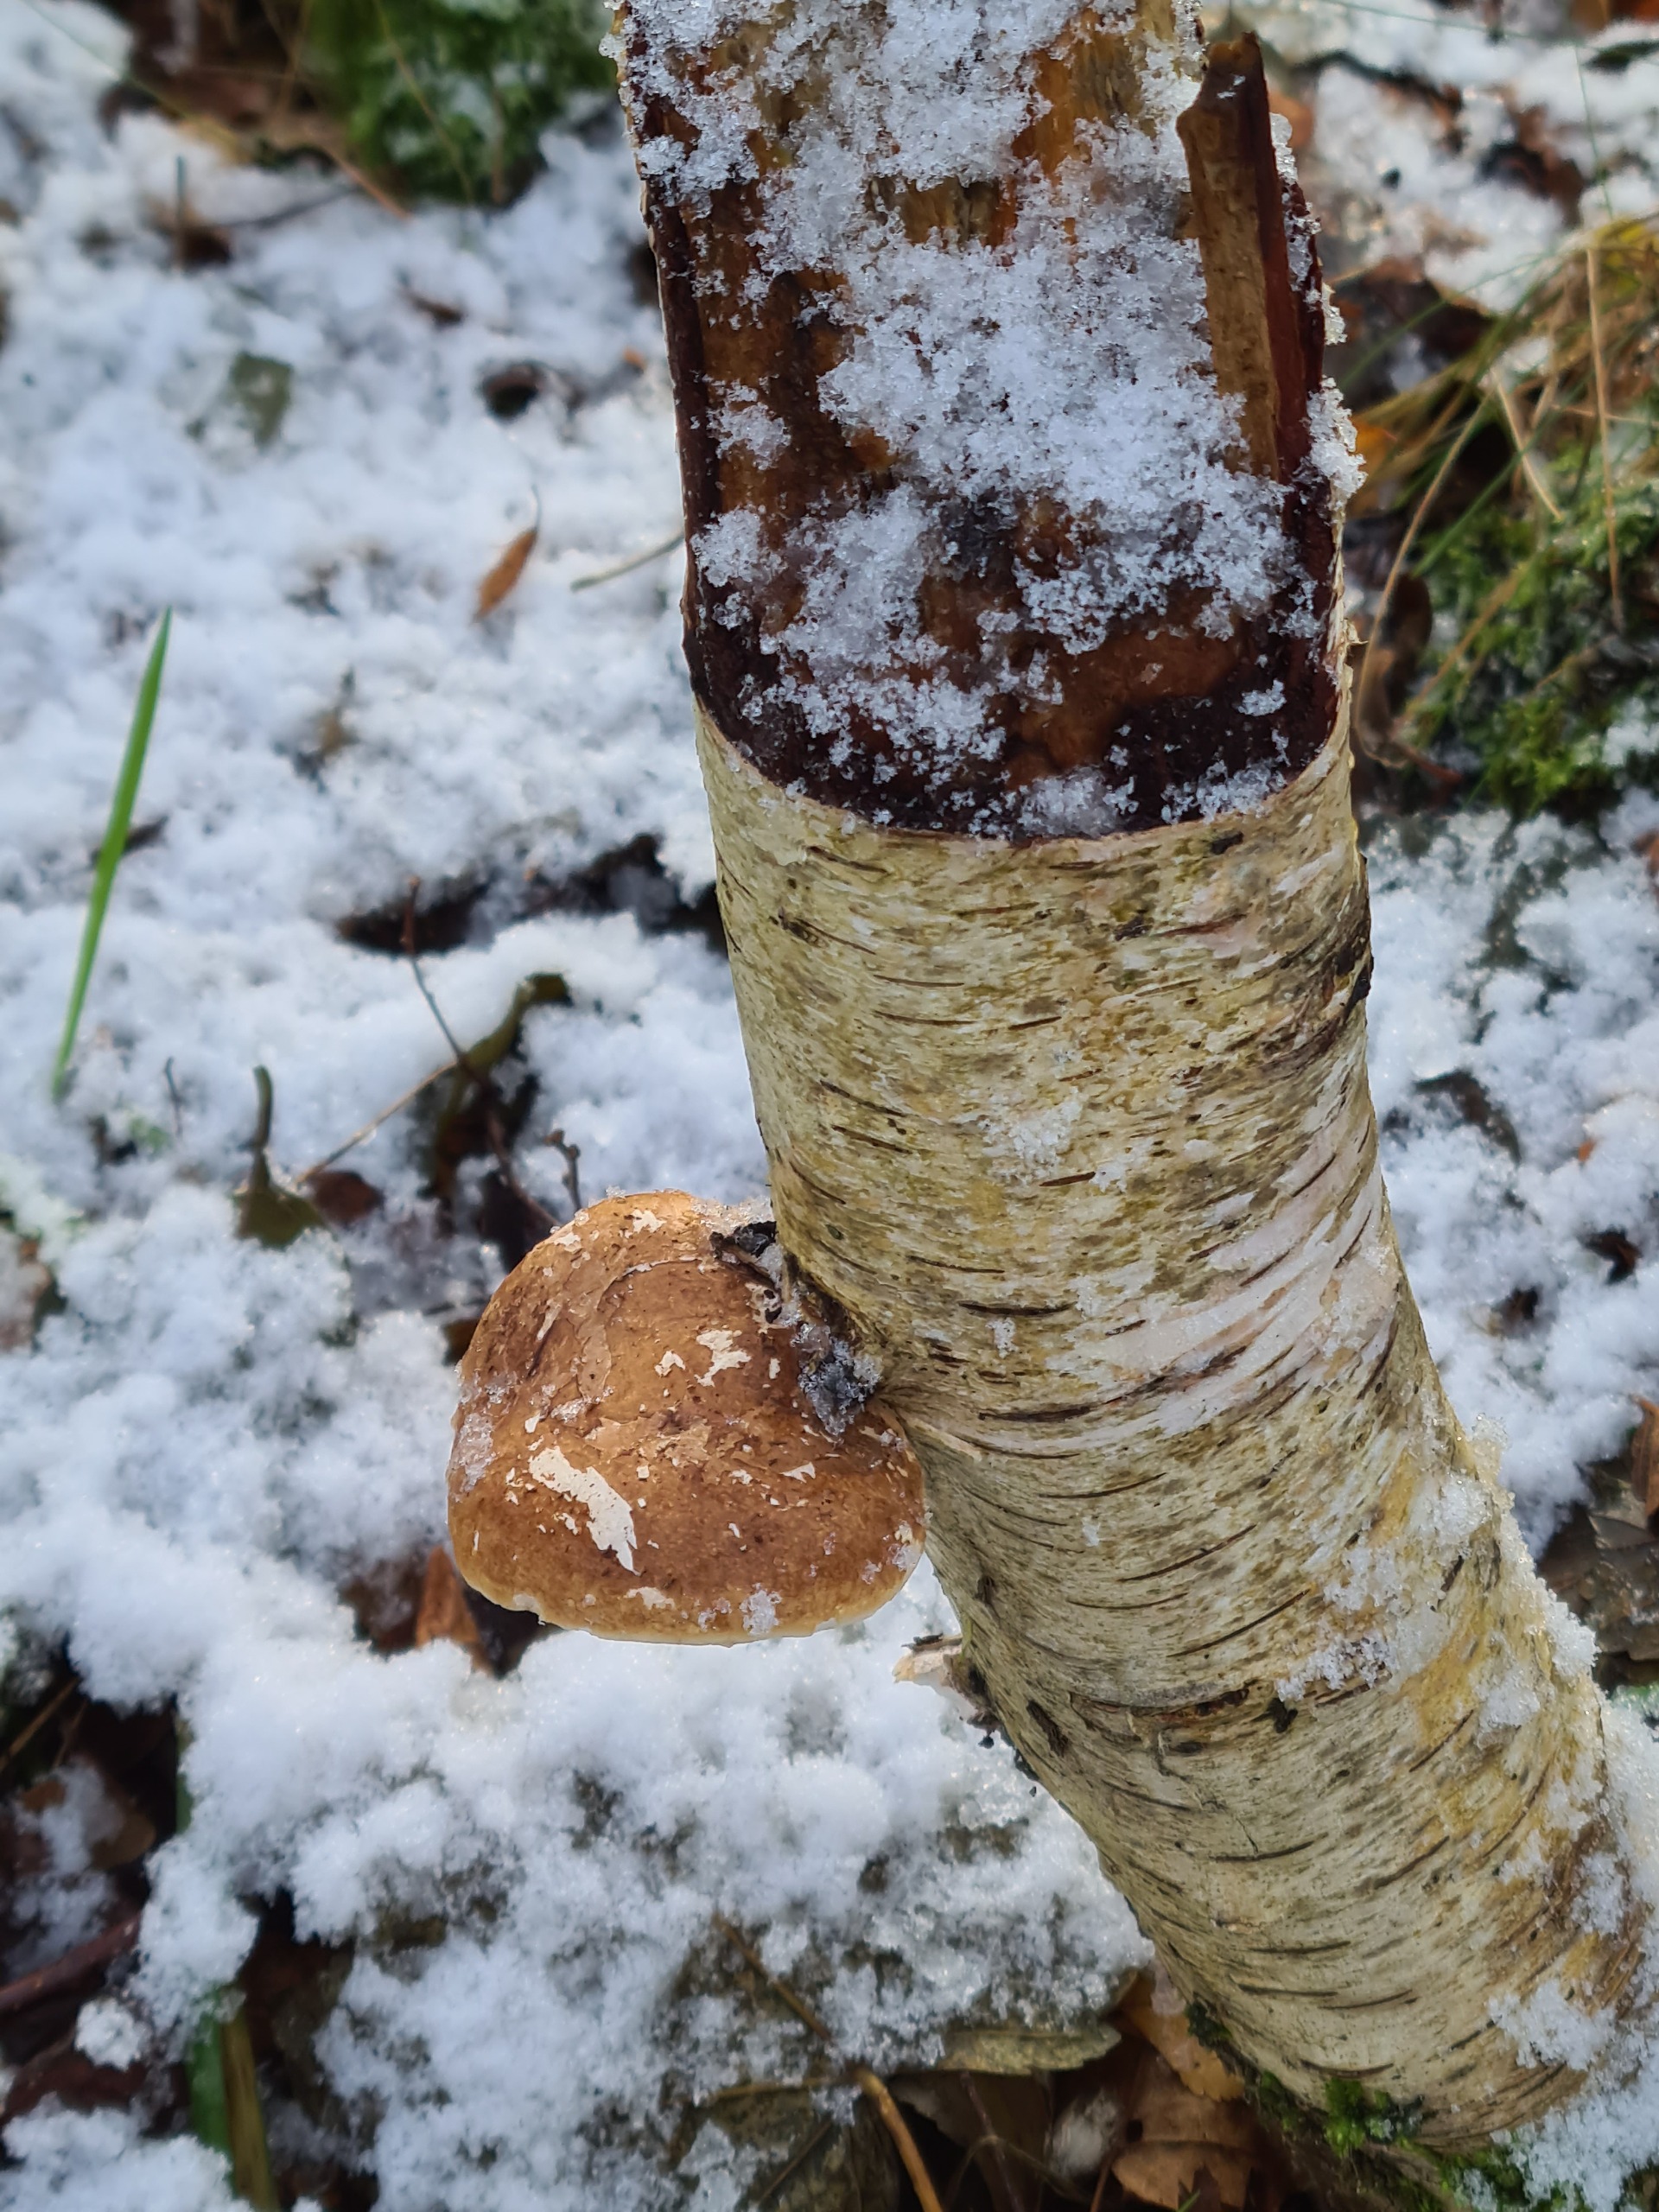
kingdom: Fungi
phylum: Basidiomycota
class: Agaricomycetes
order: Polyporales
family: Fomitopsidaceae
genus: Fomitopsis
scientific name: Fomitopsis betulina
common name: Birkeporesvamp
